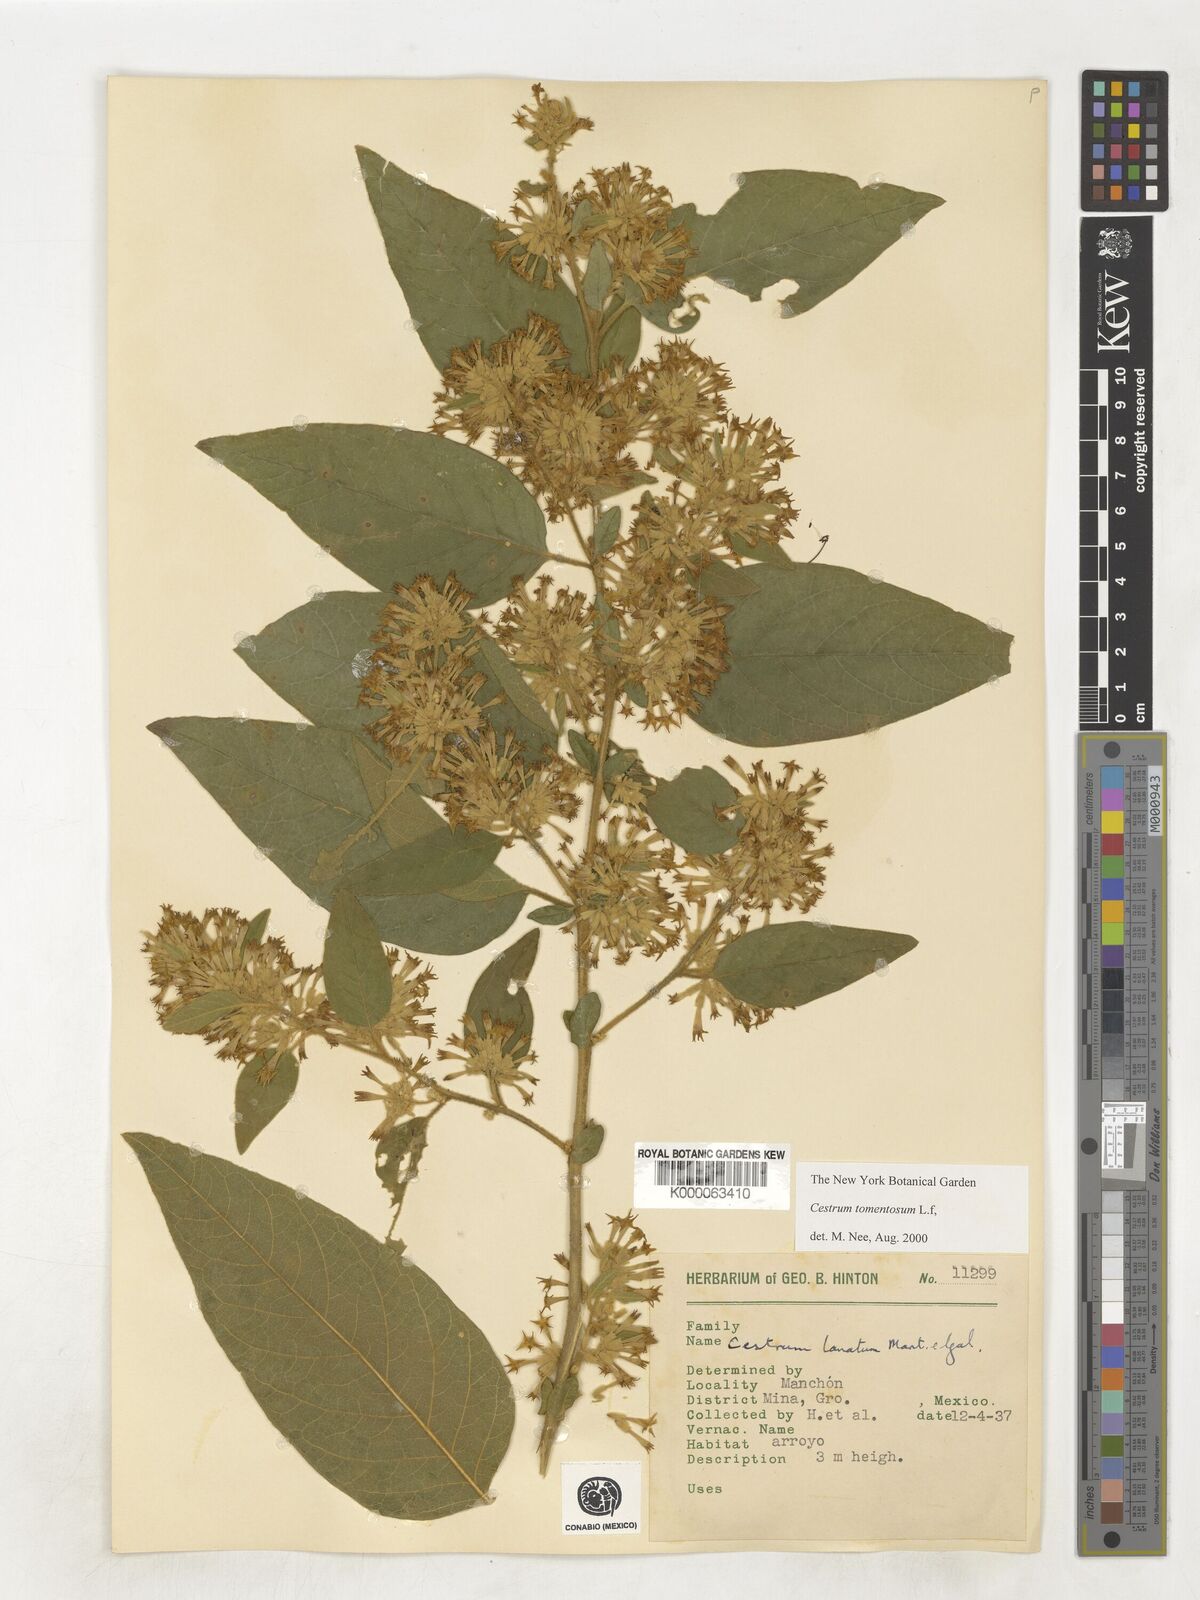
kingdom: Plantae
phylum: Tracheophyta
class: Magnoliopsida
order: Solanales
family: Solanaceae
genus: Cestrum
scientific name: Cestrum tomentosum
